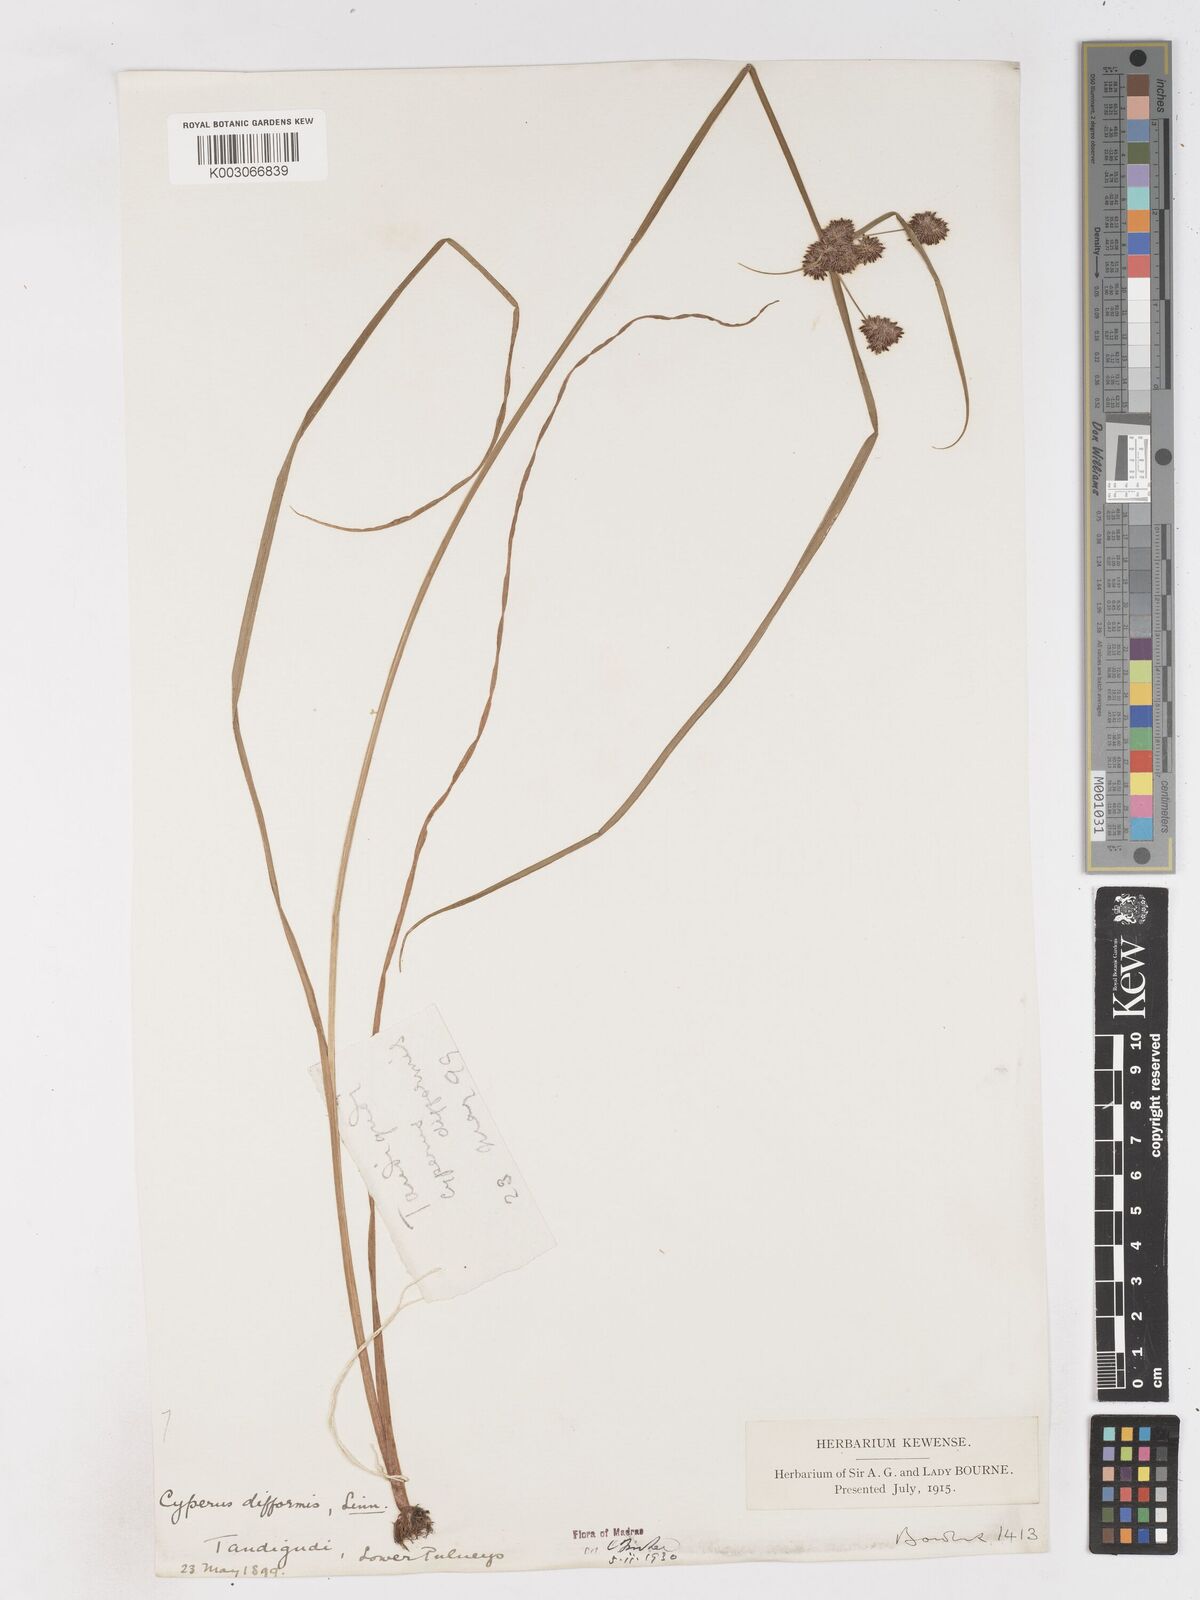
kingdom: Plantae
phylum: Tracheophyta
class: Liliopsida
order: Poales
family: Cyperaceae
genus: Cyperus
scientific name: Cyperus difformis
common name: Variable flatsedge
